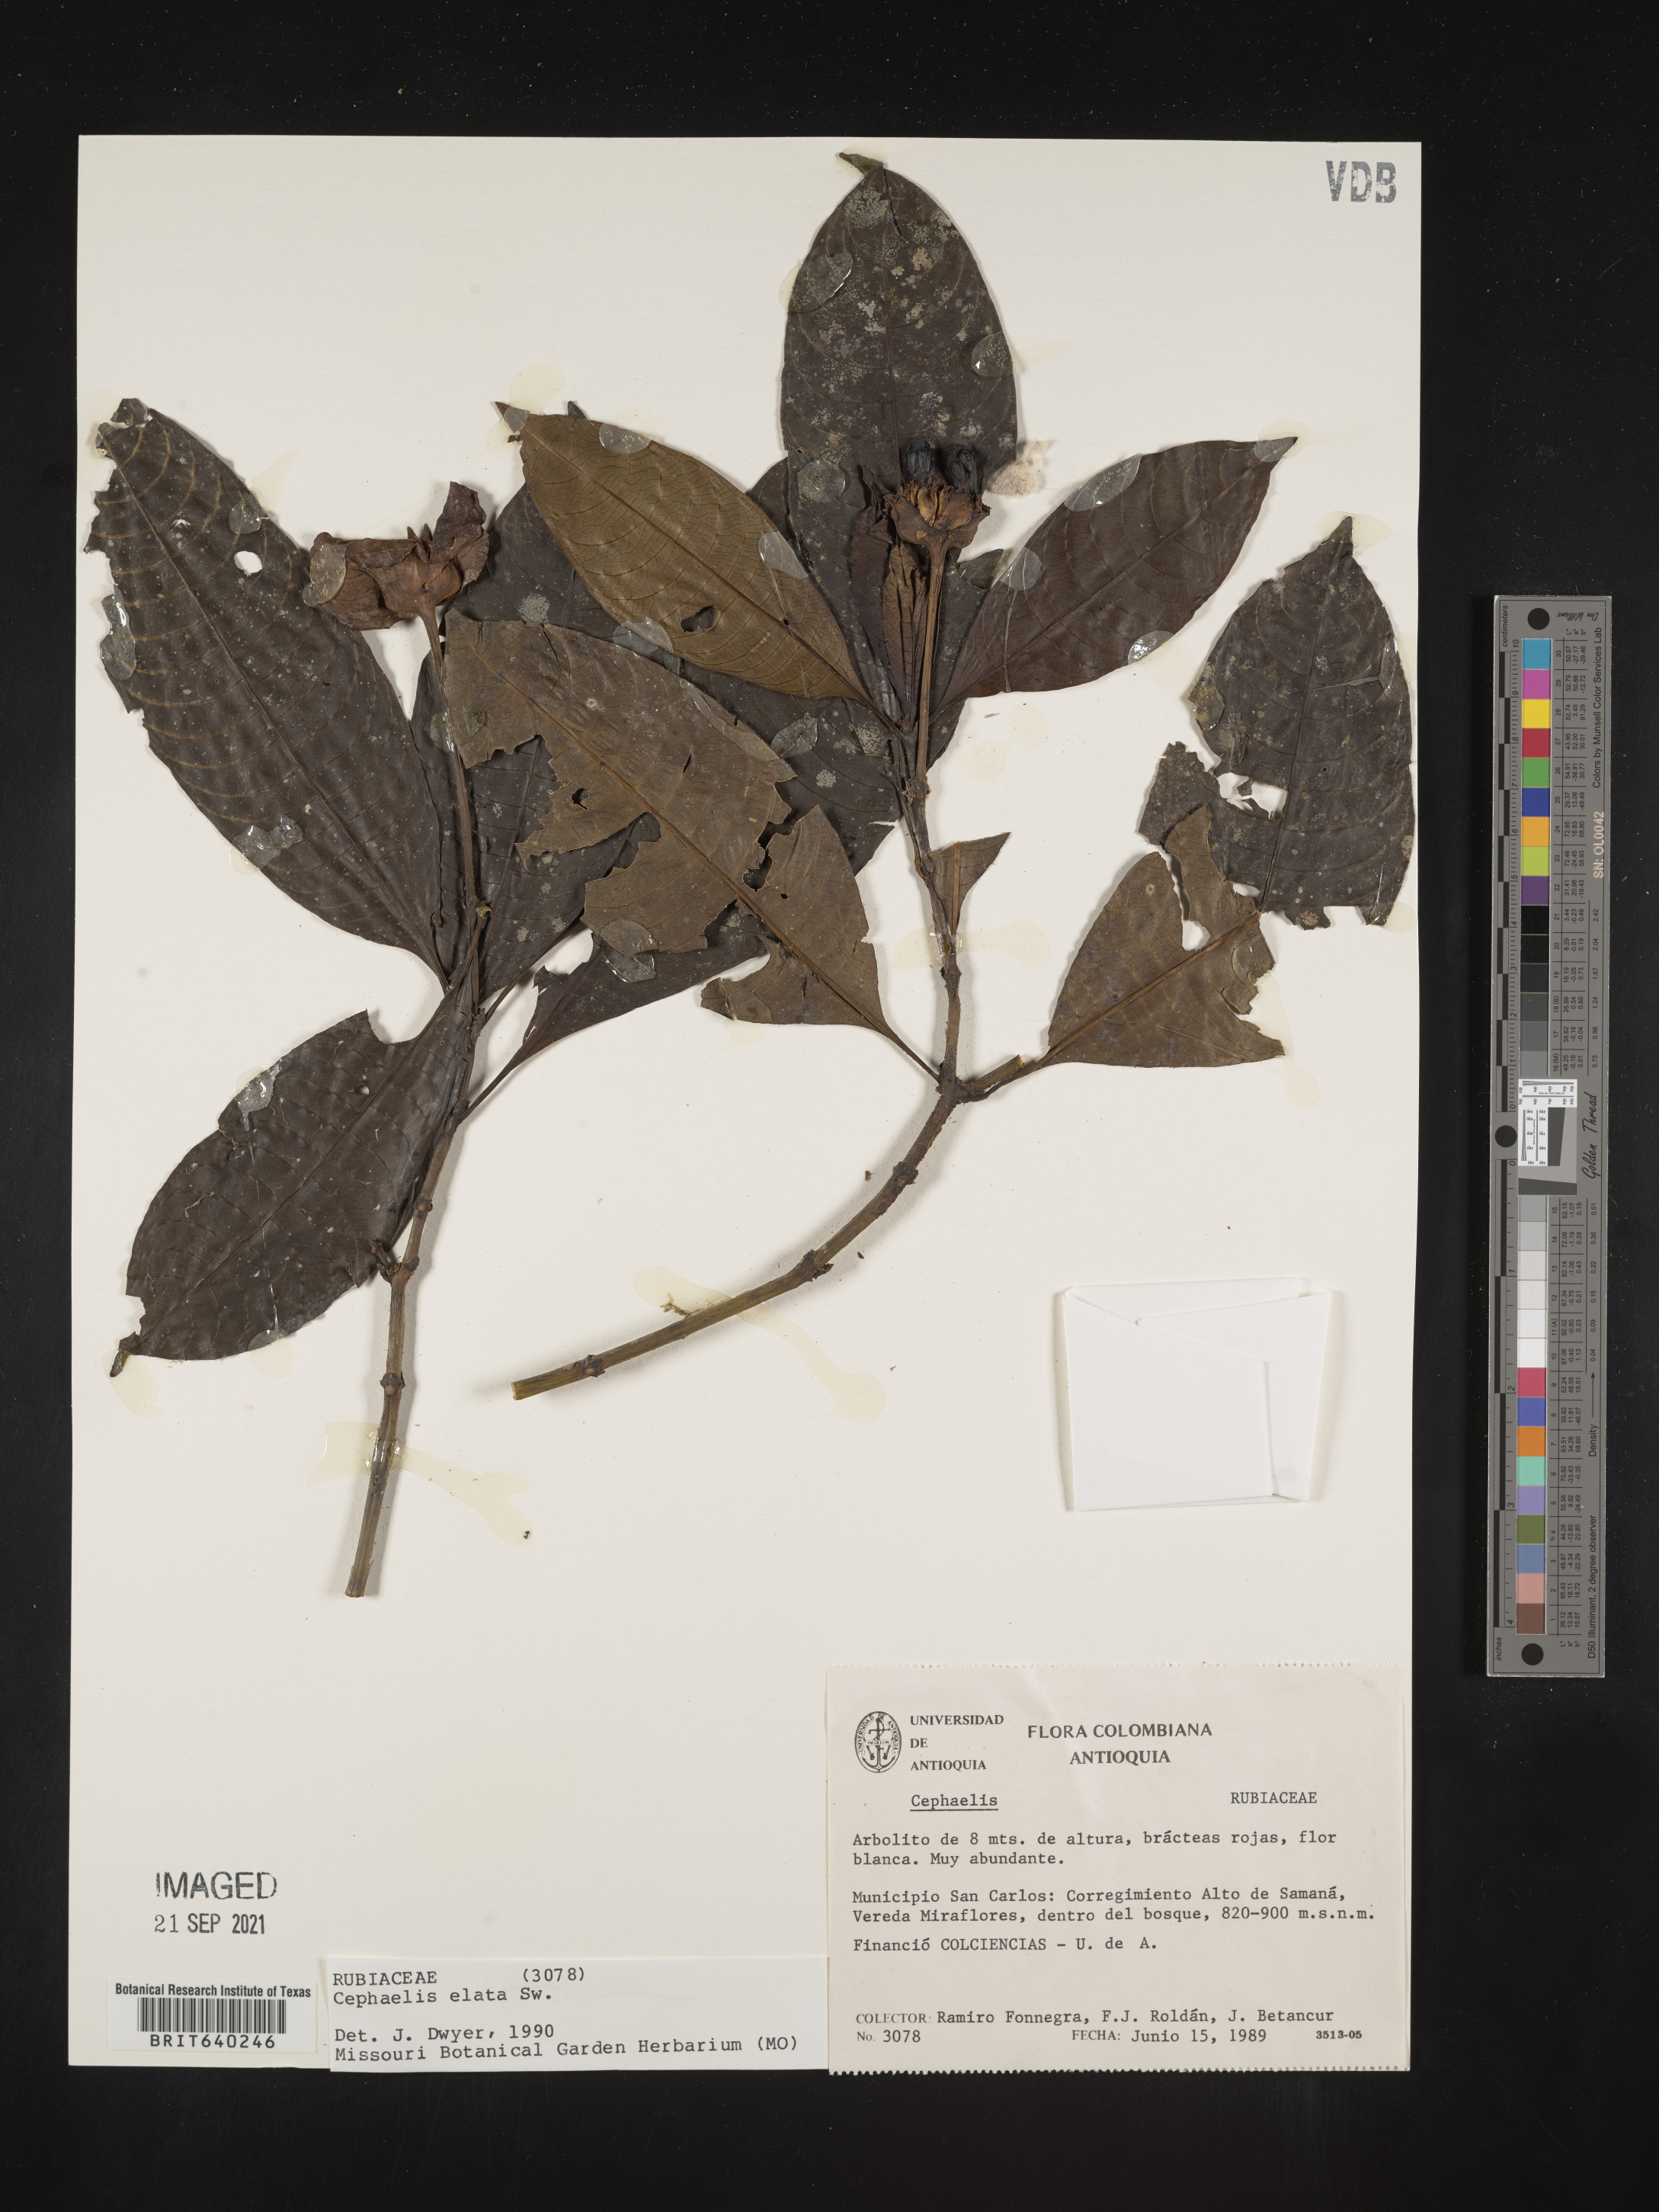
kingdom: Plantae
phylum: Tracheophyta
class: Magnoliopsida
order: Gentianales
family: Rubiaceae
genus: Psychotria
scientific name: Psychotria
